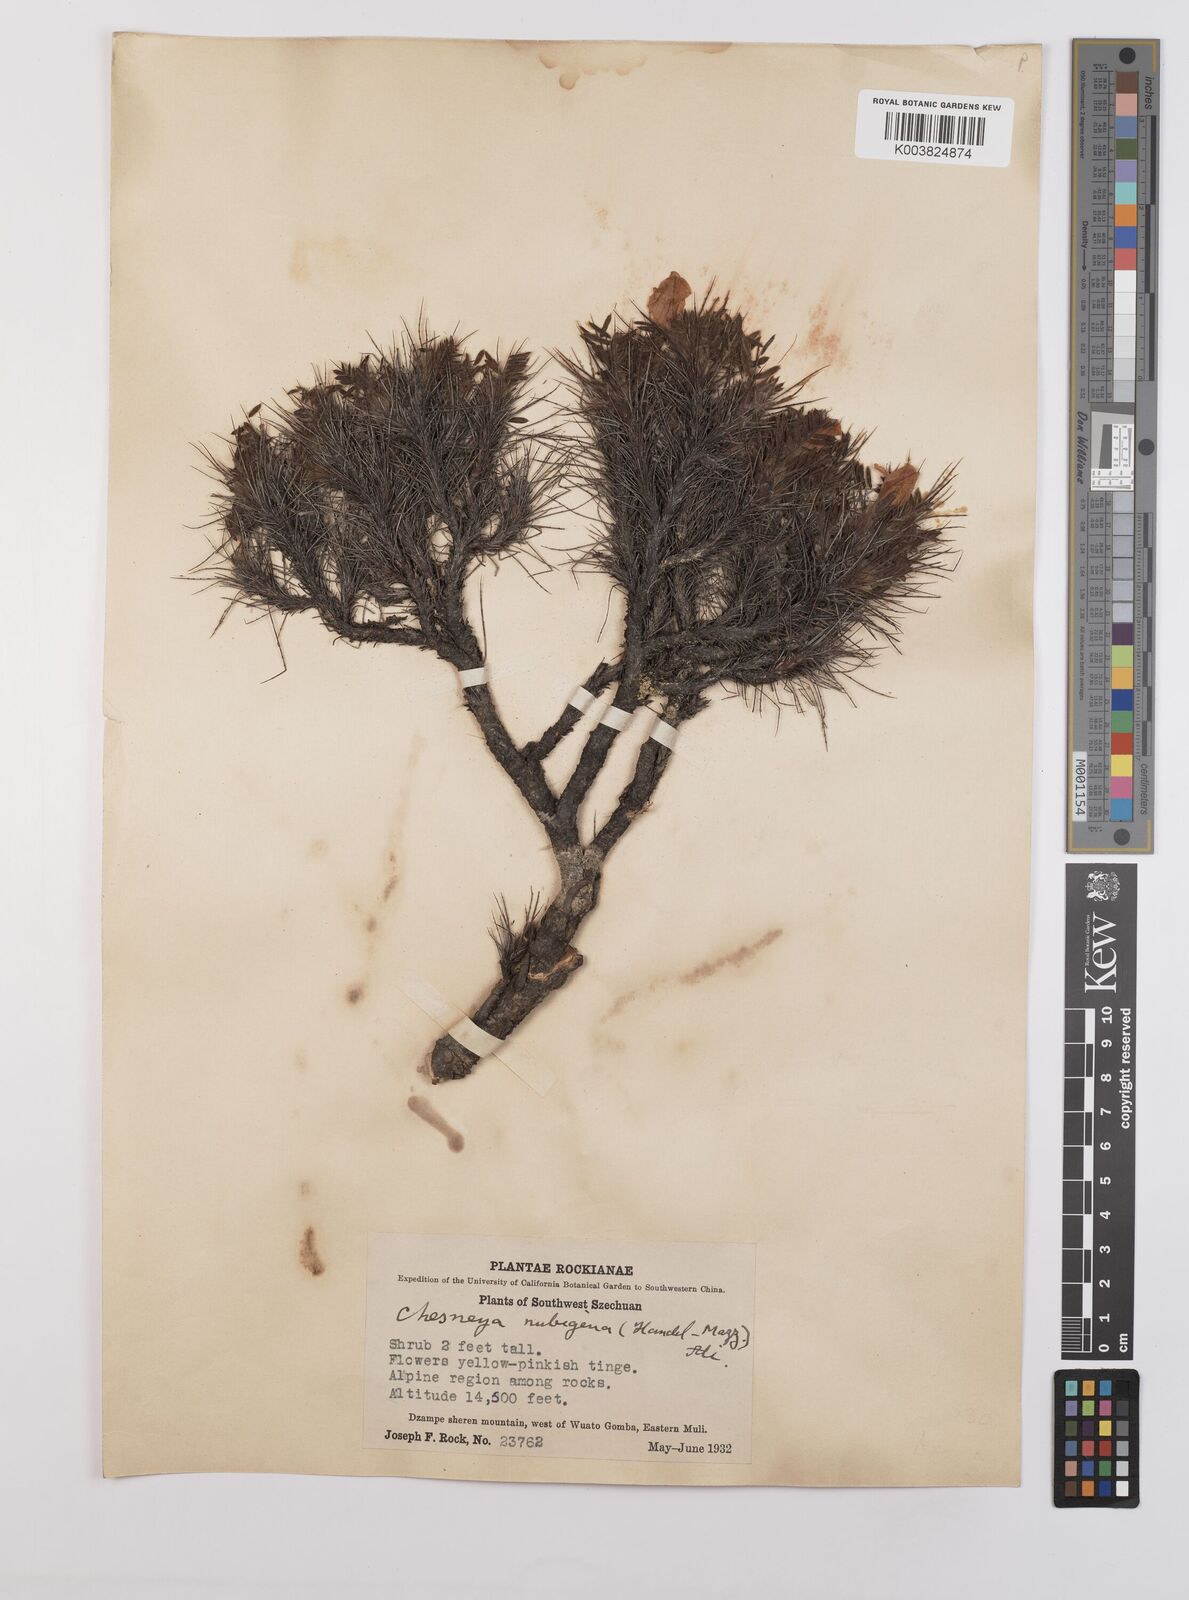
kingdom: Plantae
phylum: Tracheophyta
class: Magnoliopsida
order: Fabales
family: Fabaceae
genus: Chesneya
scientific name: Chesneya nubigena
